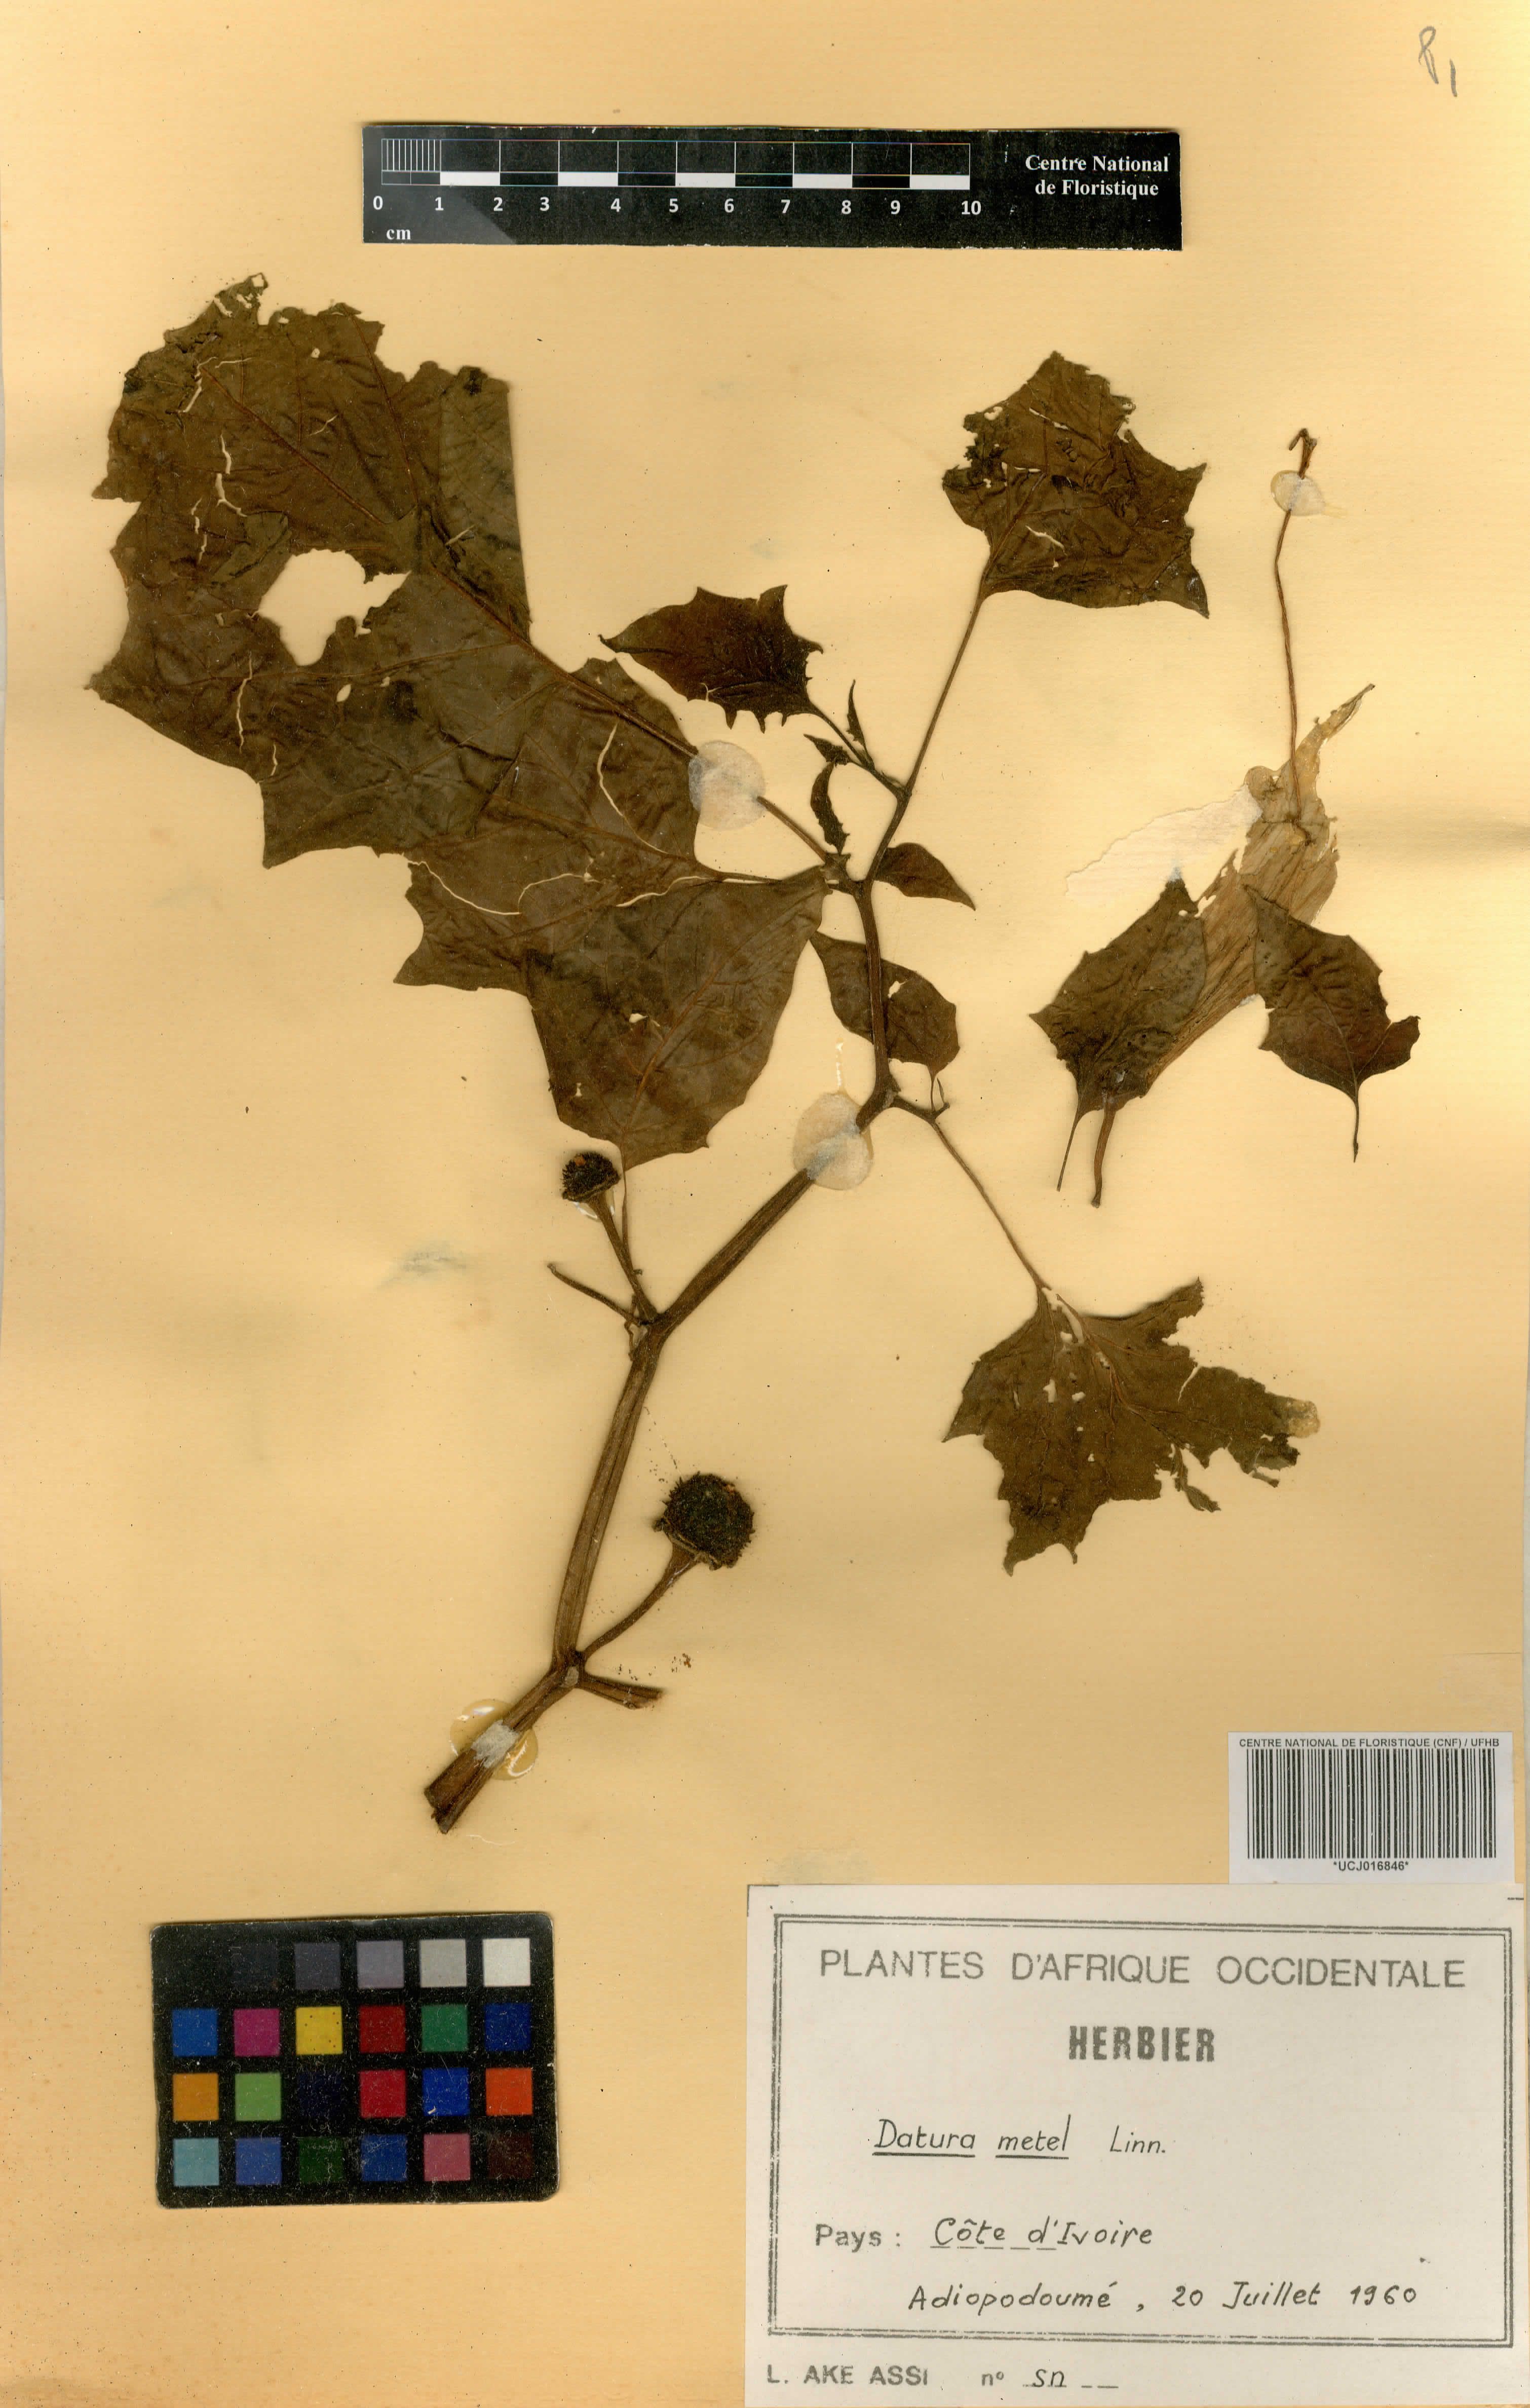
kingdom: Plantae
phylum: Tracheophyta
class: Magnoliopsida
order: Solanales
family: Solanaceae
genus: Datura
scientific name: Datura metel
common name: Jimsonweed
